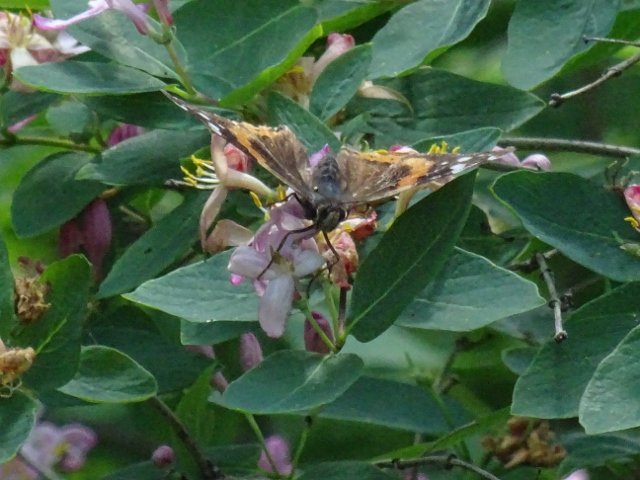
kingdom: Animalia
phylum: Arthropoda
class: Insecta
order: Lepidoptera
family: Nymphalidae
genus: Vanessa
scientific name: Vanessa atalanta
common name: Red Admiral
